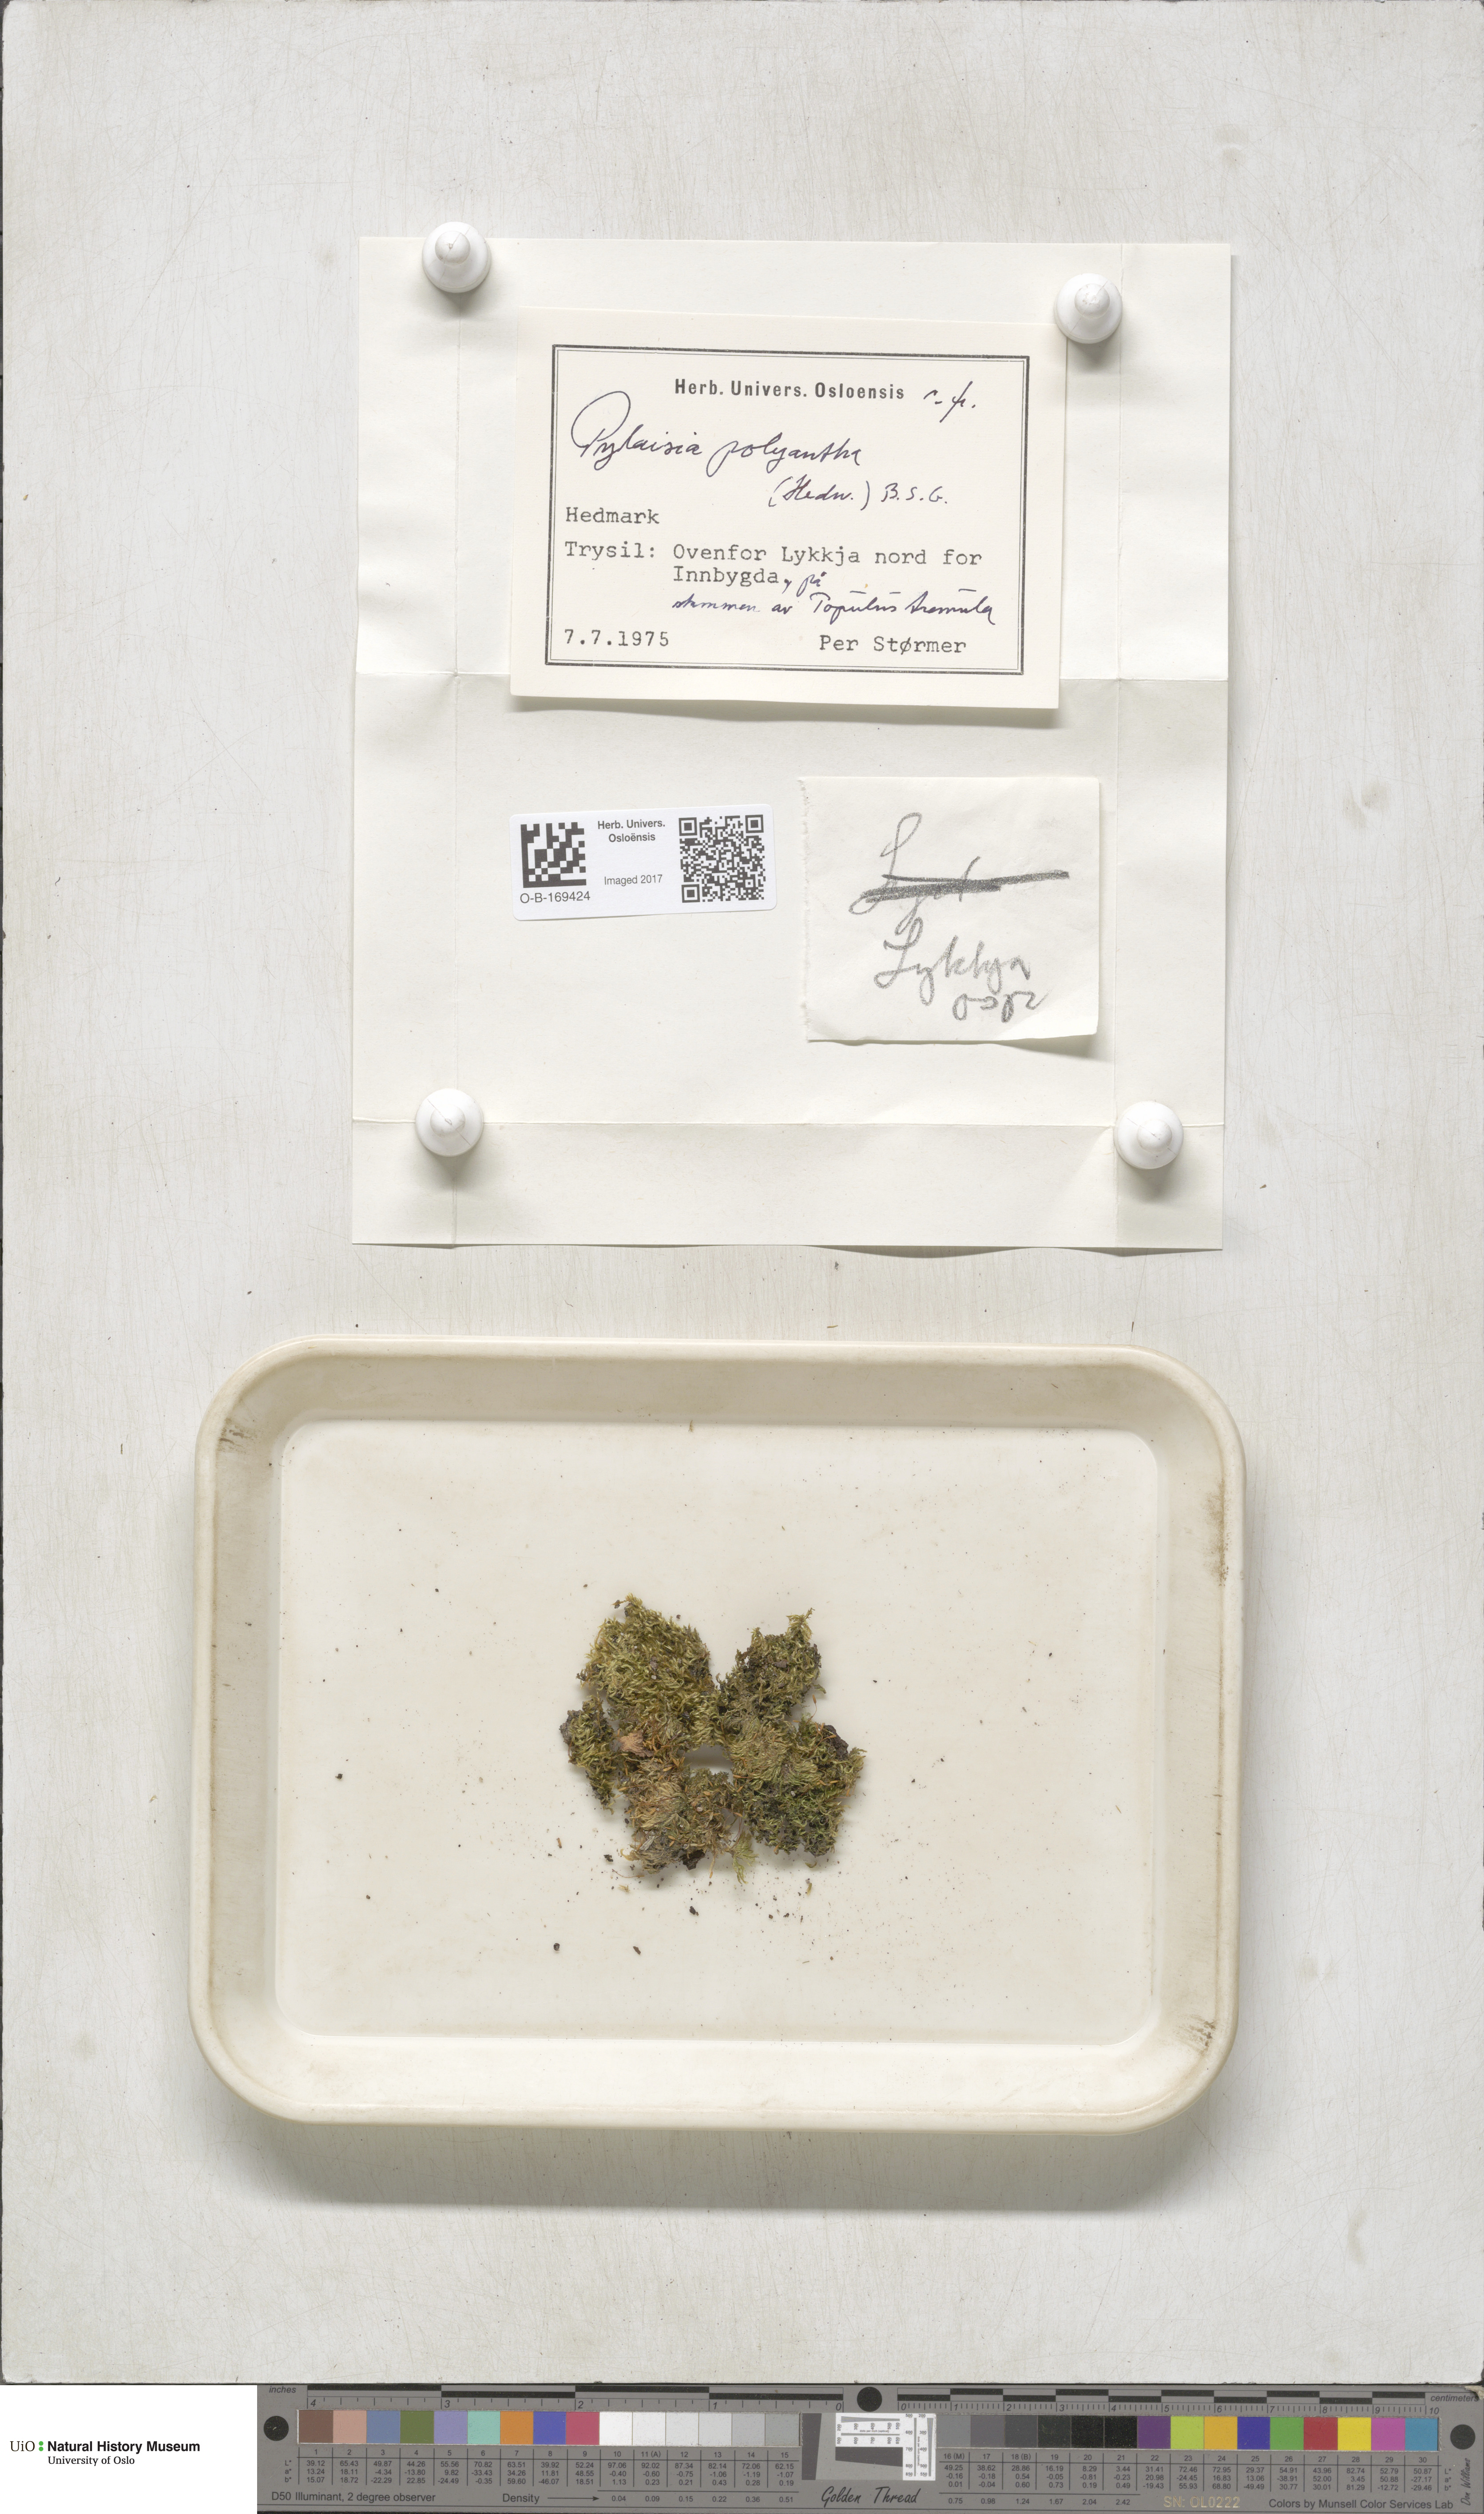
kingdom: Plantae
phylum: Bryophyta
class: Bryopsida
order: Hypnales
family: Pylaisiaceae
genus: Pylaisia
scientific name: Pylaisia polyantha
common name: Many-flowered leskea
